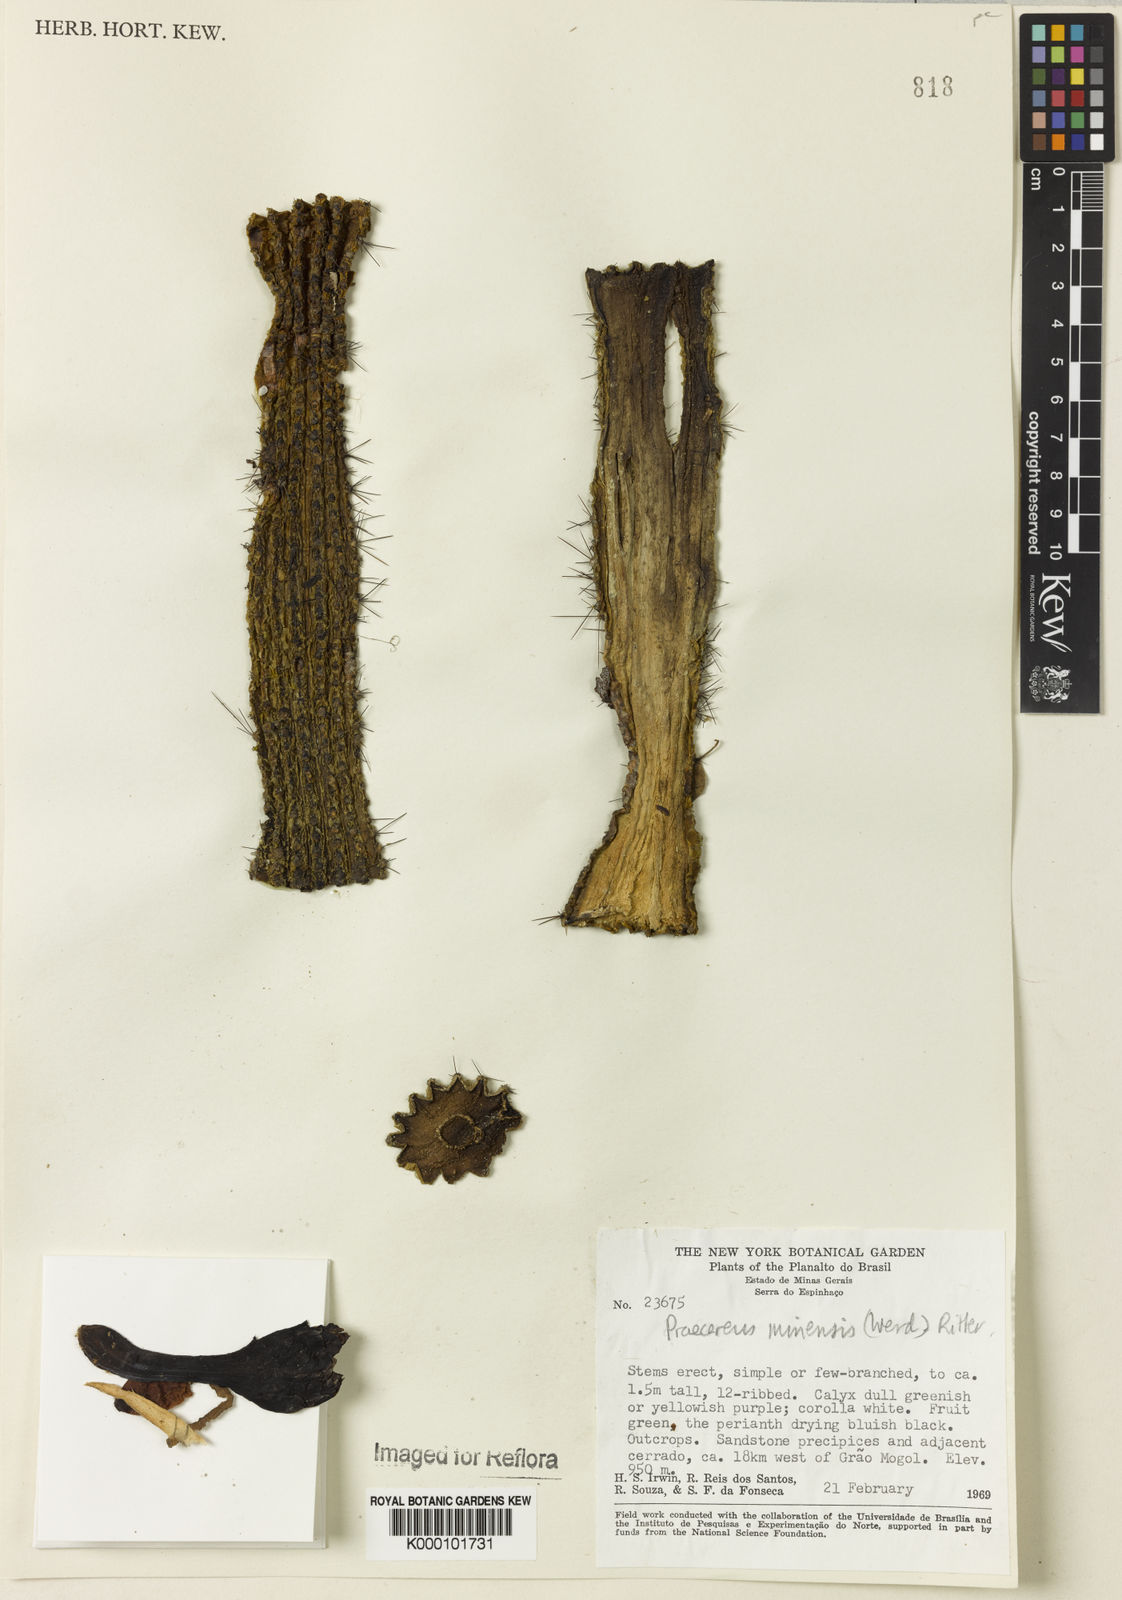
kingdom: Plantae
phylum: Tracheophyta
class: Magnoliopsida
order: Caryophyllales
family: Cactaceae
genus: Cipocereus
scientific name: Cipocereus minensis
